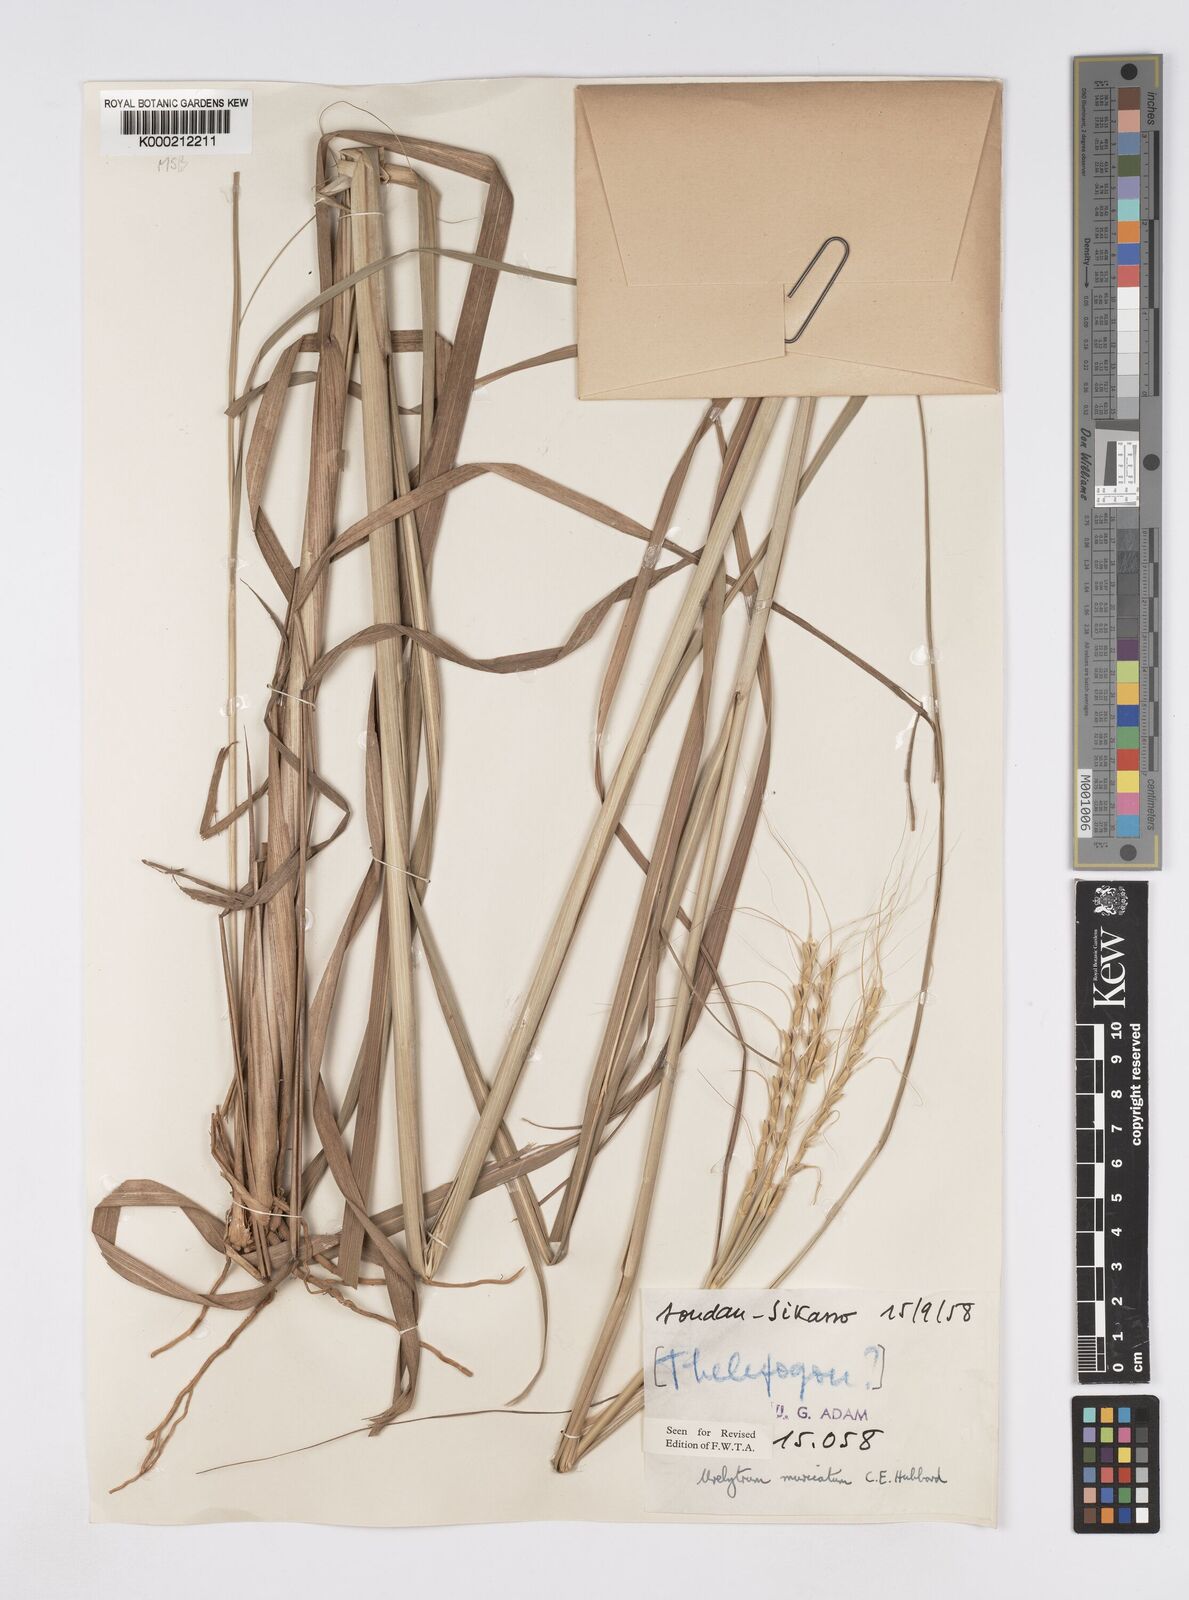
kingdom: Plantae
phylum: Tracheophyta
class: Liliopsida
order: Poales
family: Poaceae
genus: Urelytrum
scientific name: Urelytrum muricatum
